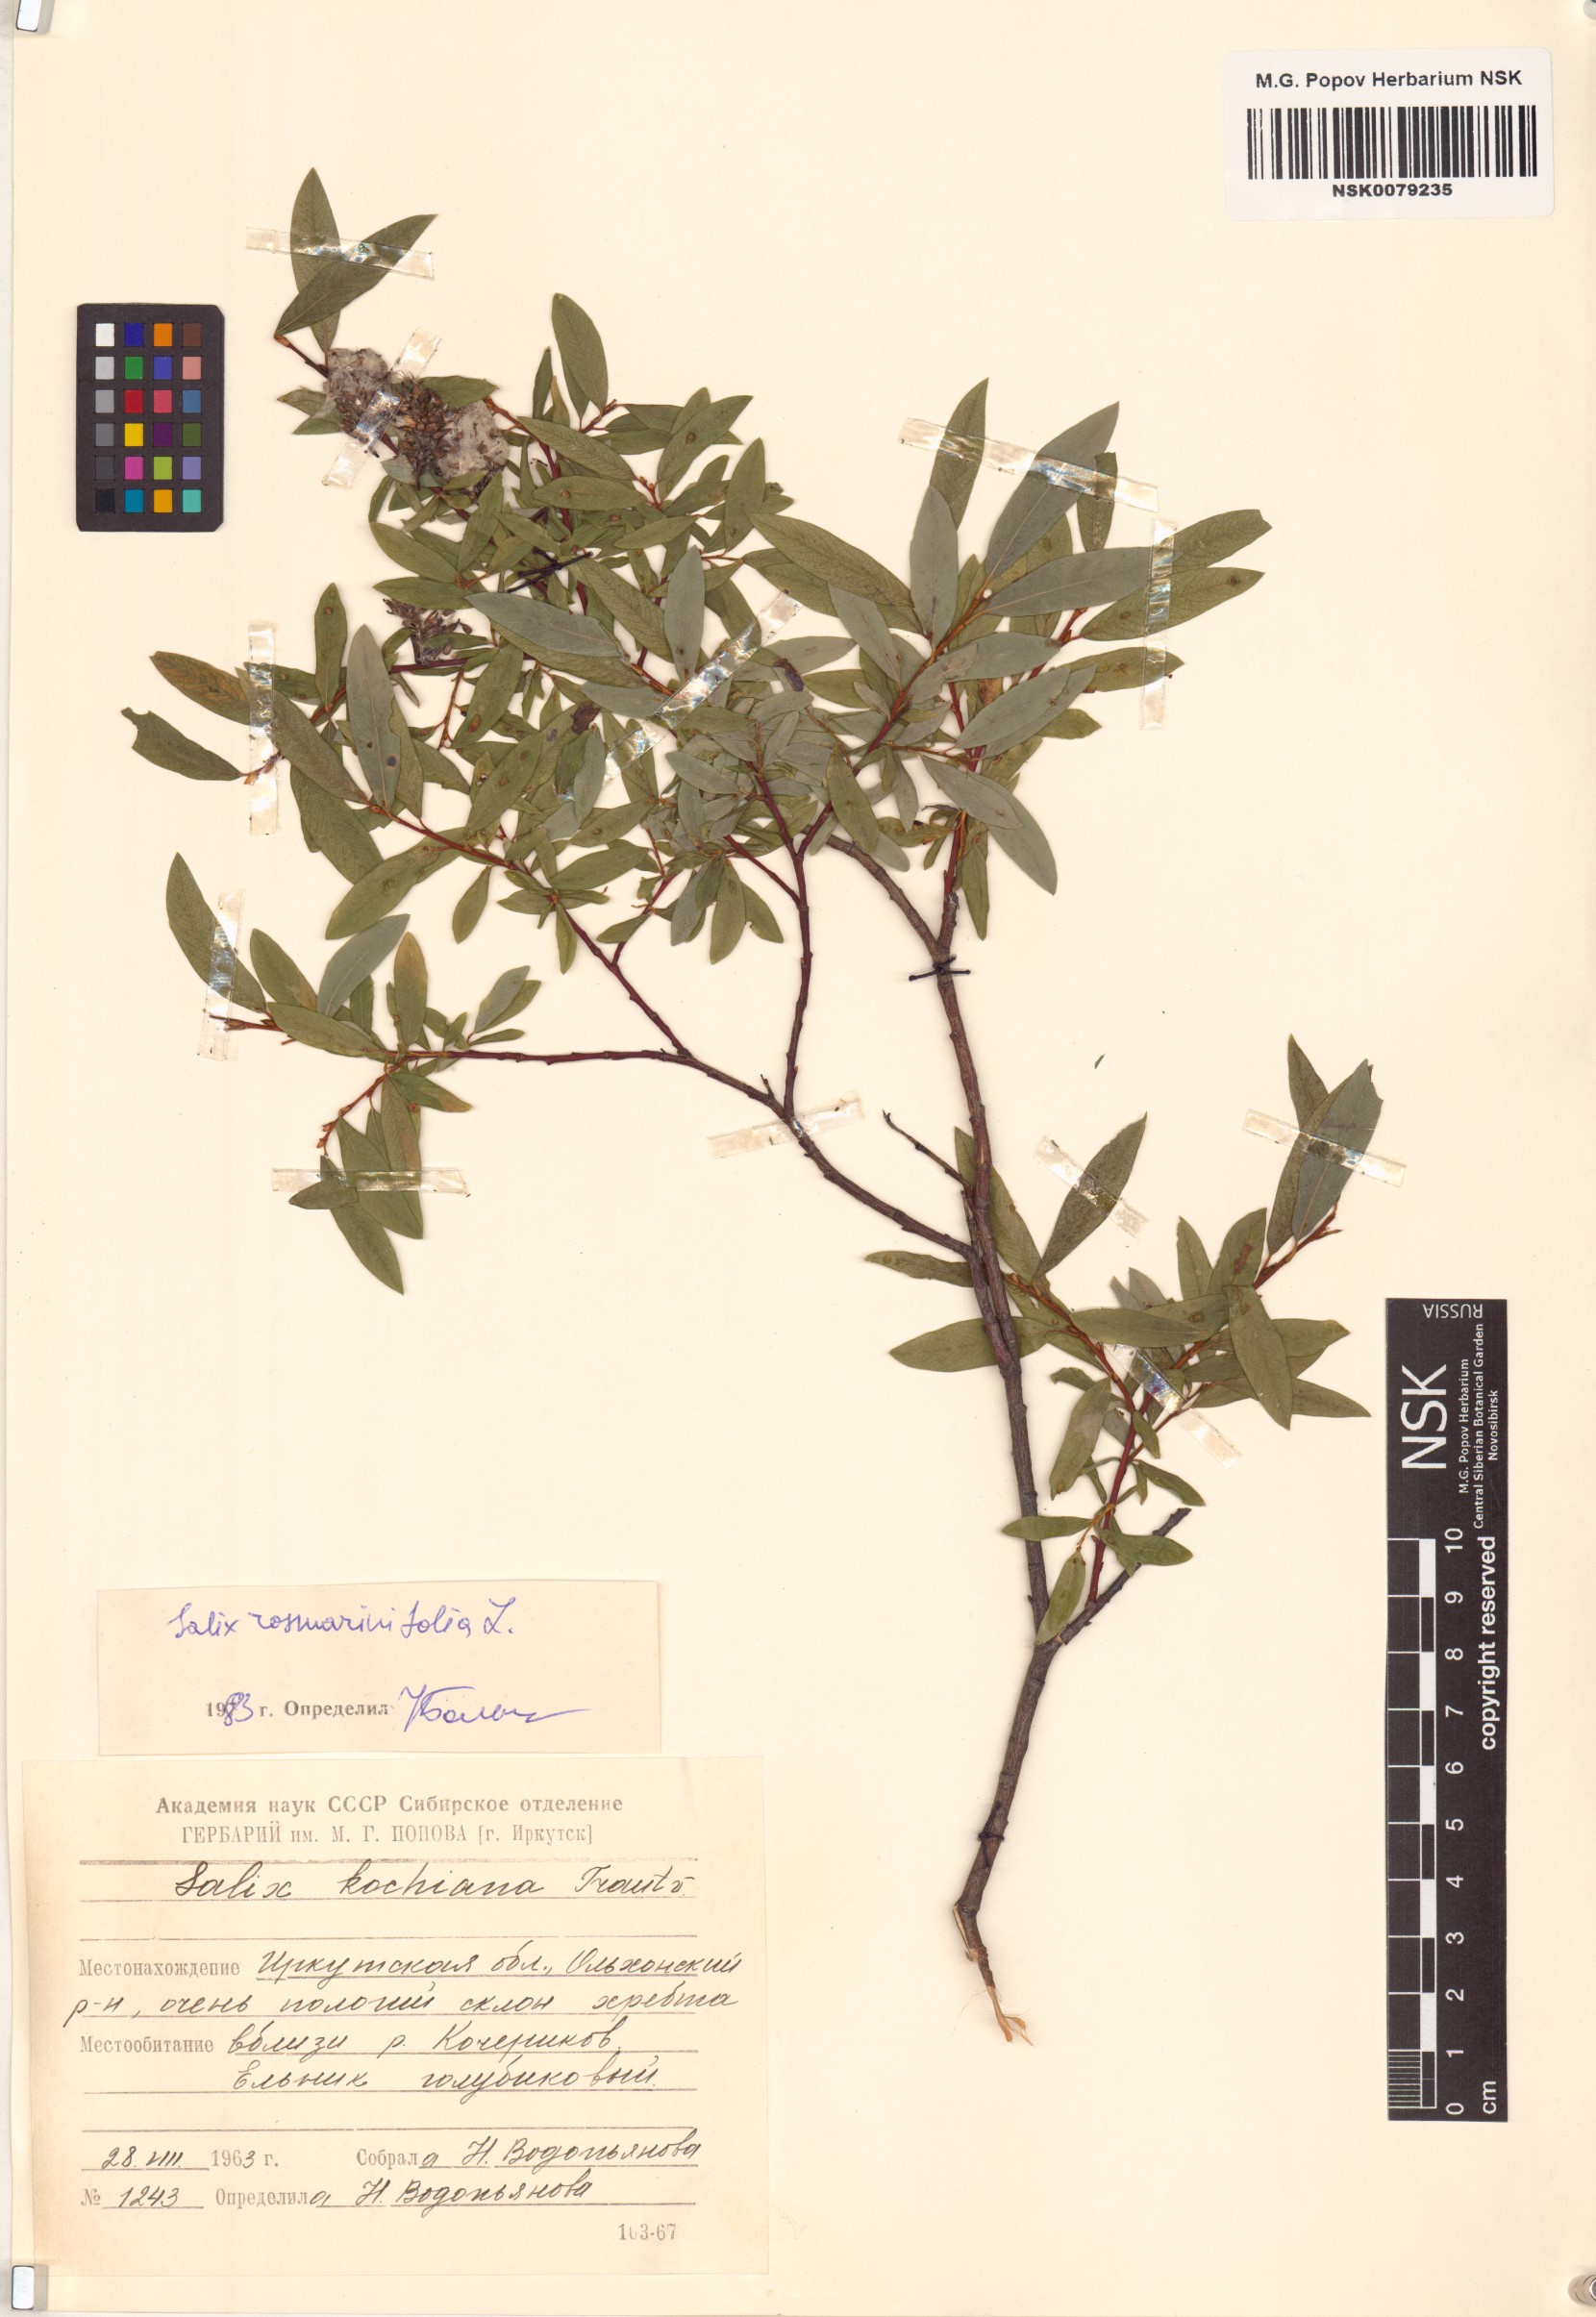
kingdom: Plantae
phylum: Tracheophyta
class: Magnoliopsida
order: Malpighiales
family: Salicaceae
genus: Salix
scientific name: Salix rosmarinifolia
